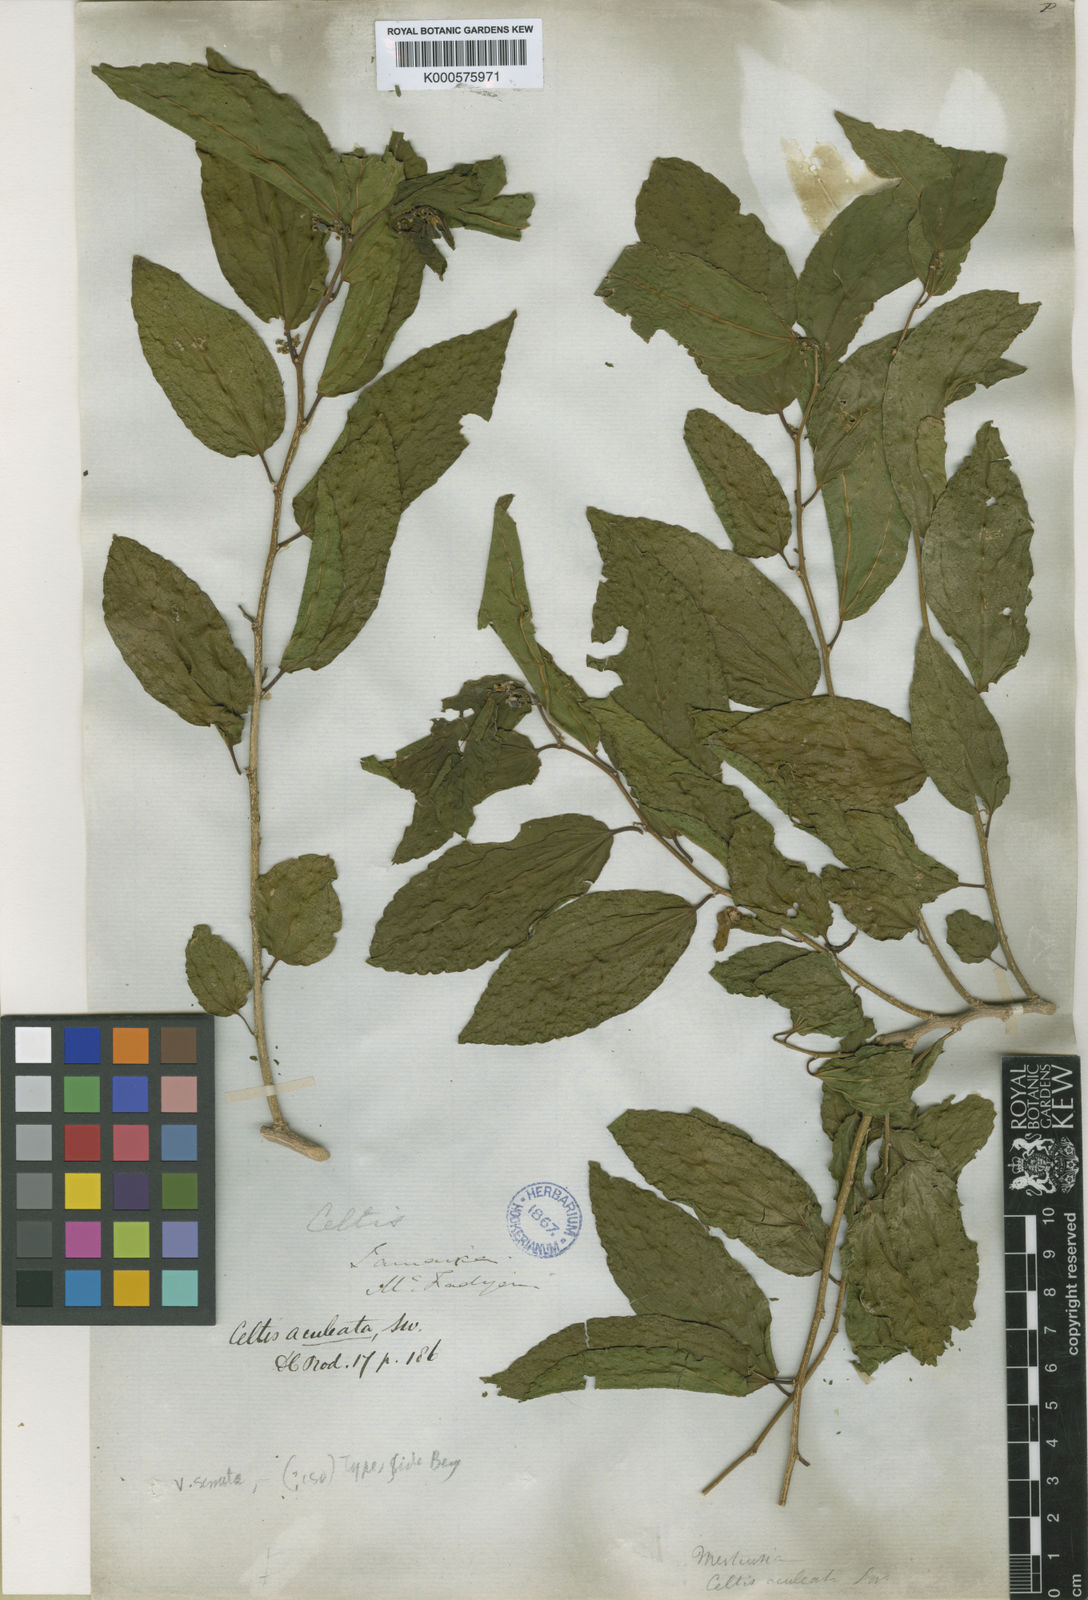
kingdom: Plantae
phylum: Tracheophyta
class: Magnoliopsida
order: Rosales
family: Cannabaceae
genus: Celtis
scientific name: Celtis iguanaea
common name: Iguana hackberry
